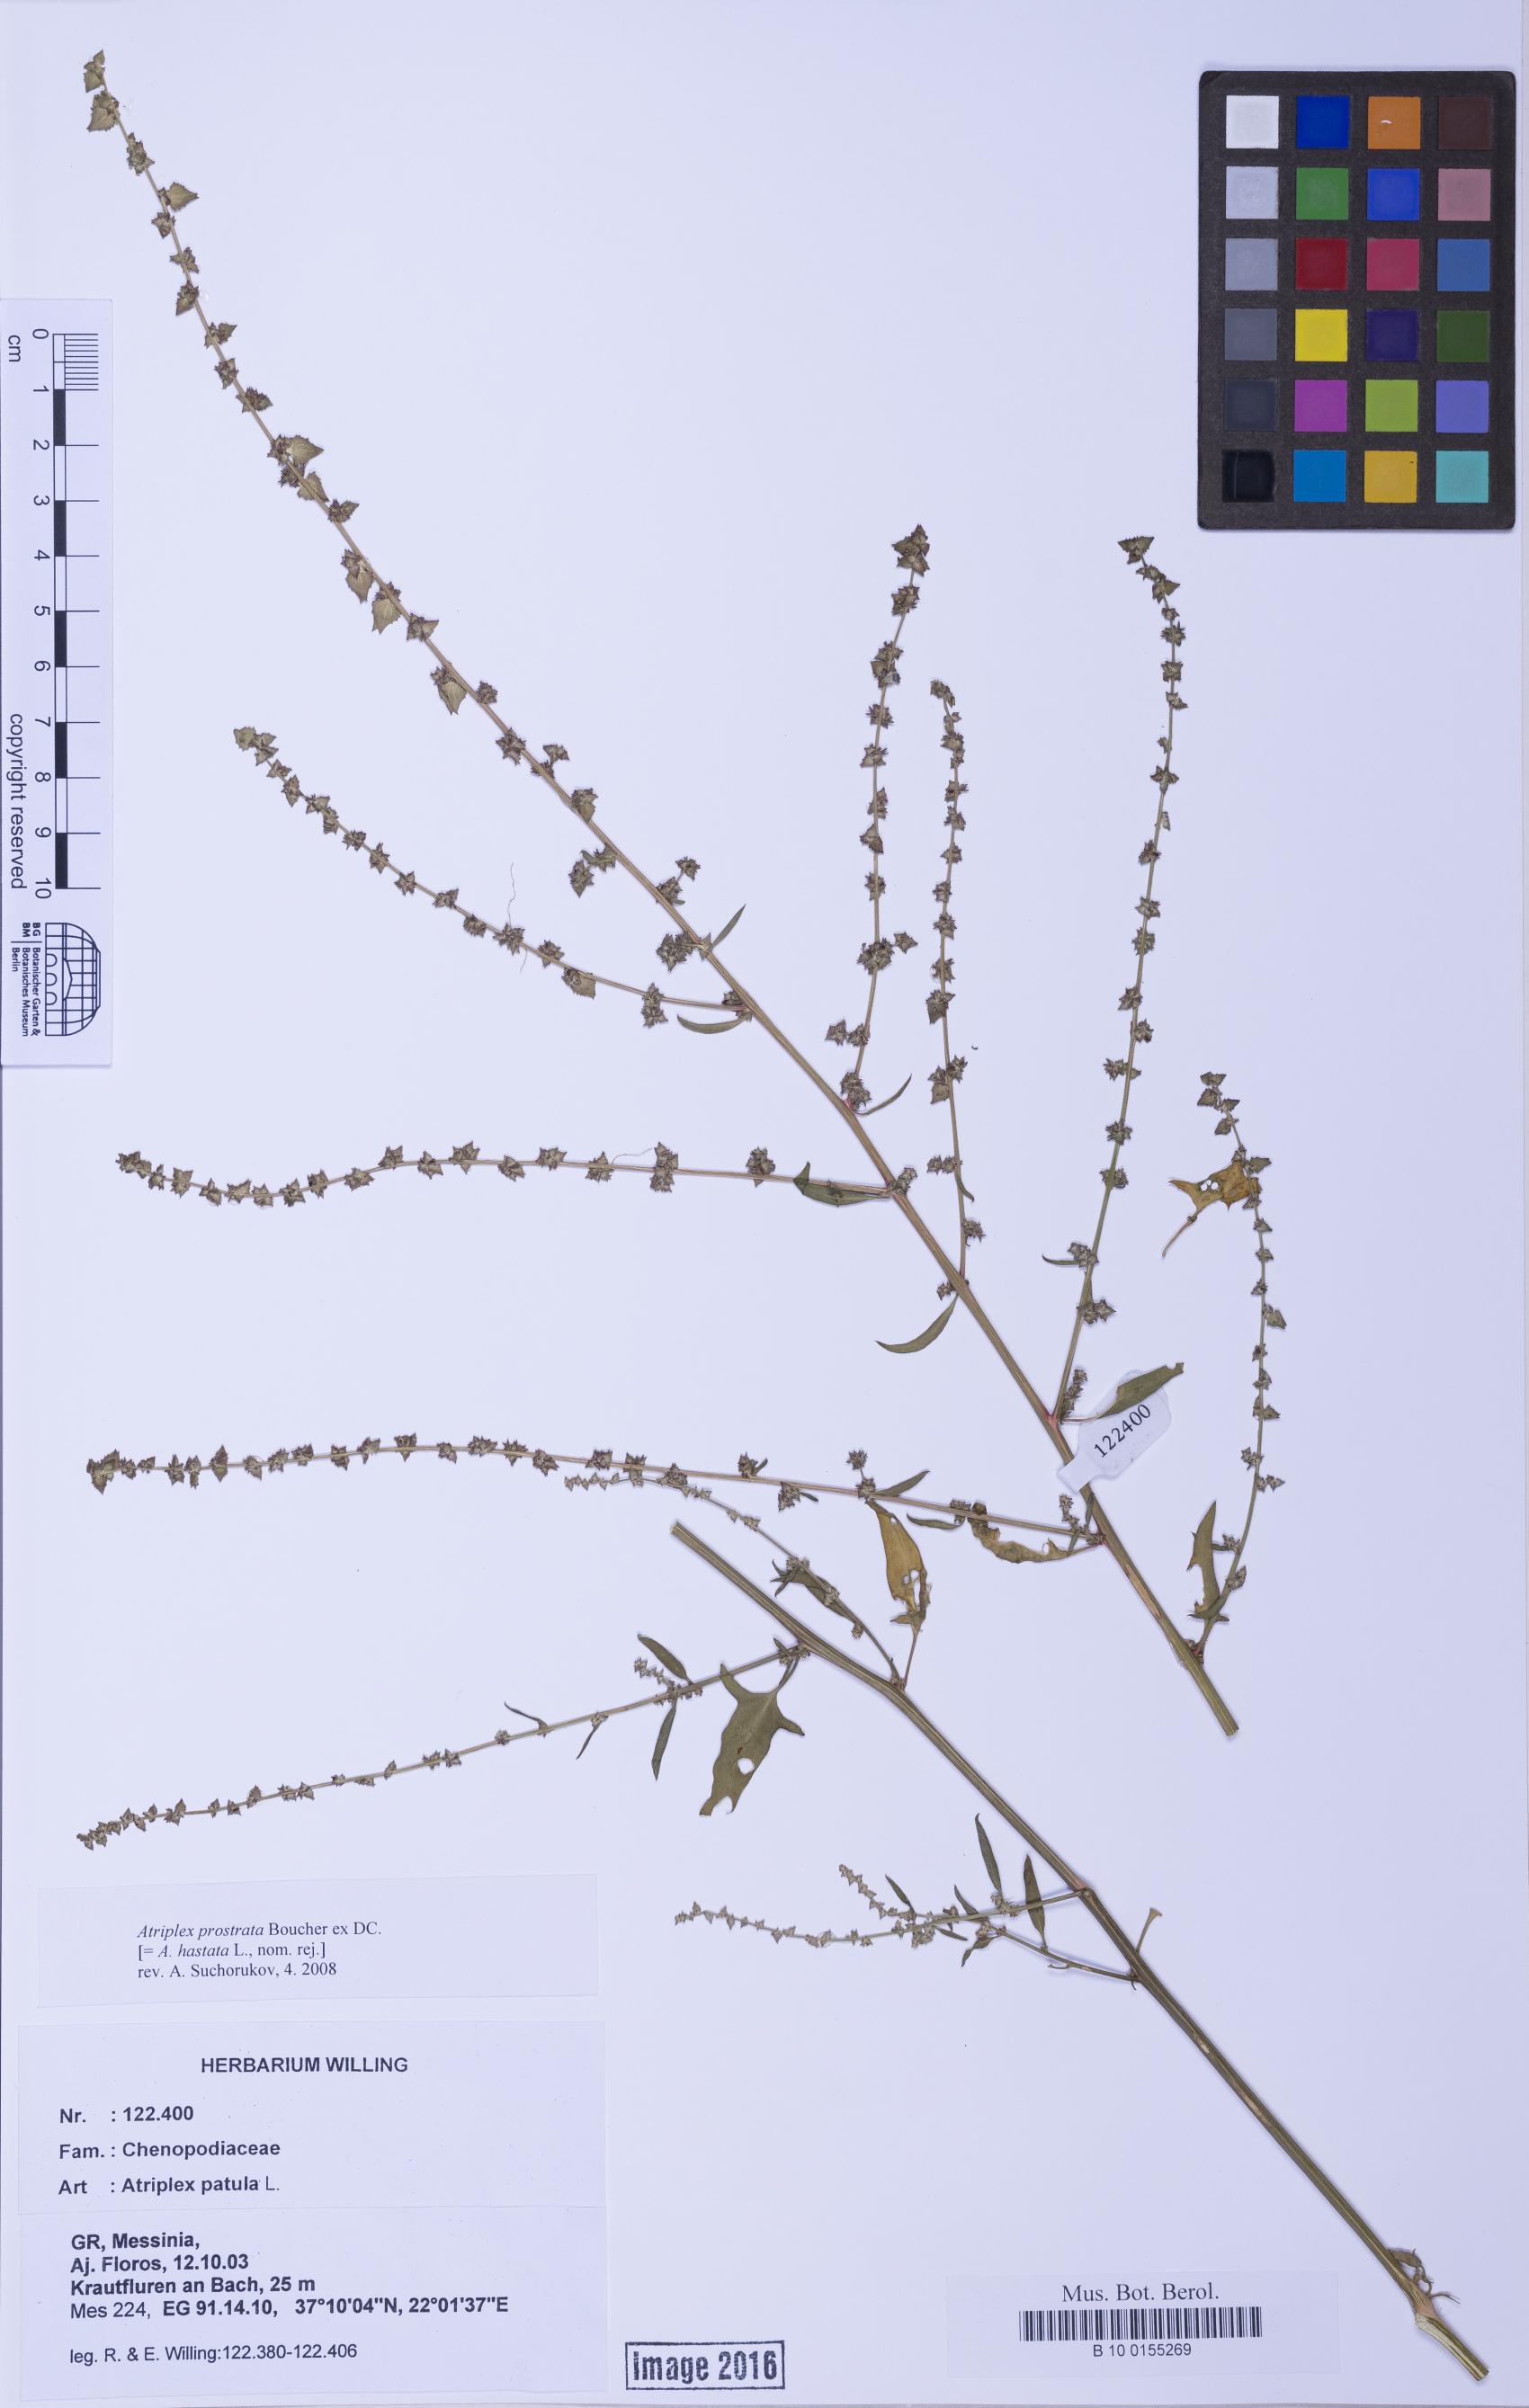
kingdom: Plantae
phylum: Tracheophyta
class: Magnoliopsida
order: Caryophyllales
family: Amaranthaceae
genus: Atriplex
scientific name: Atriplex prostrata
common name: Spear-leaved orache
